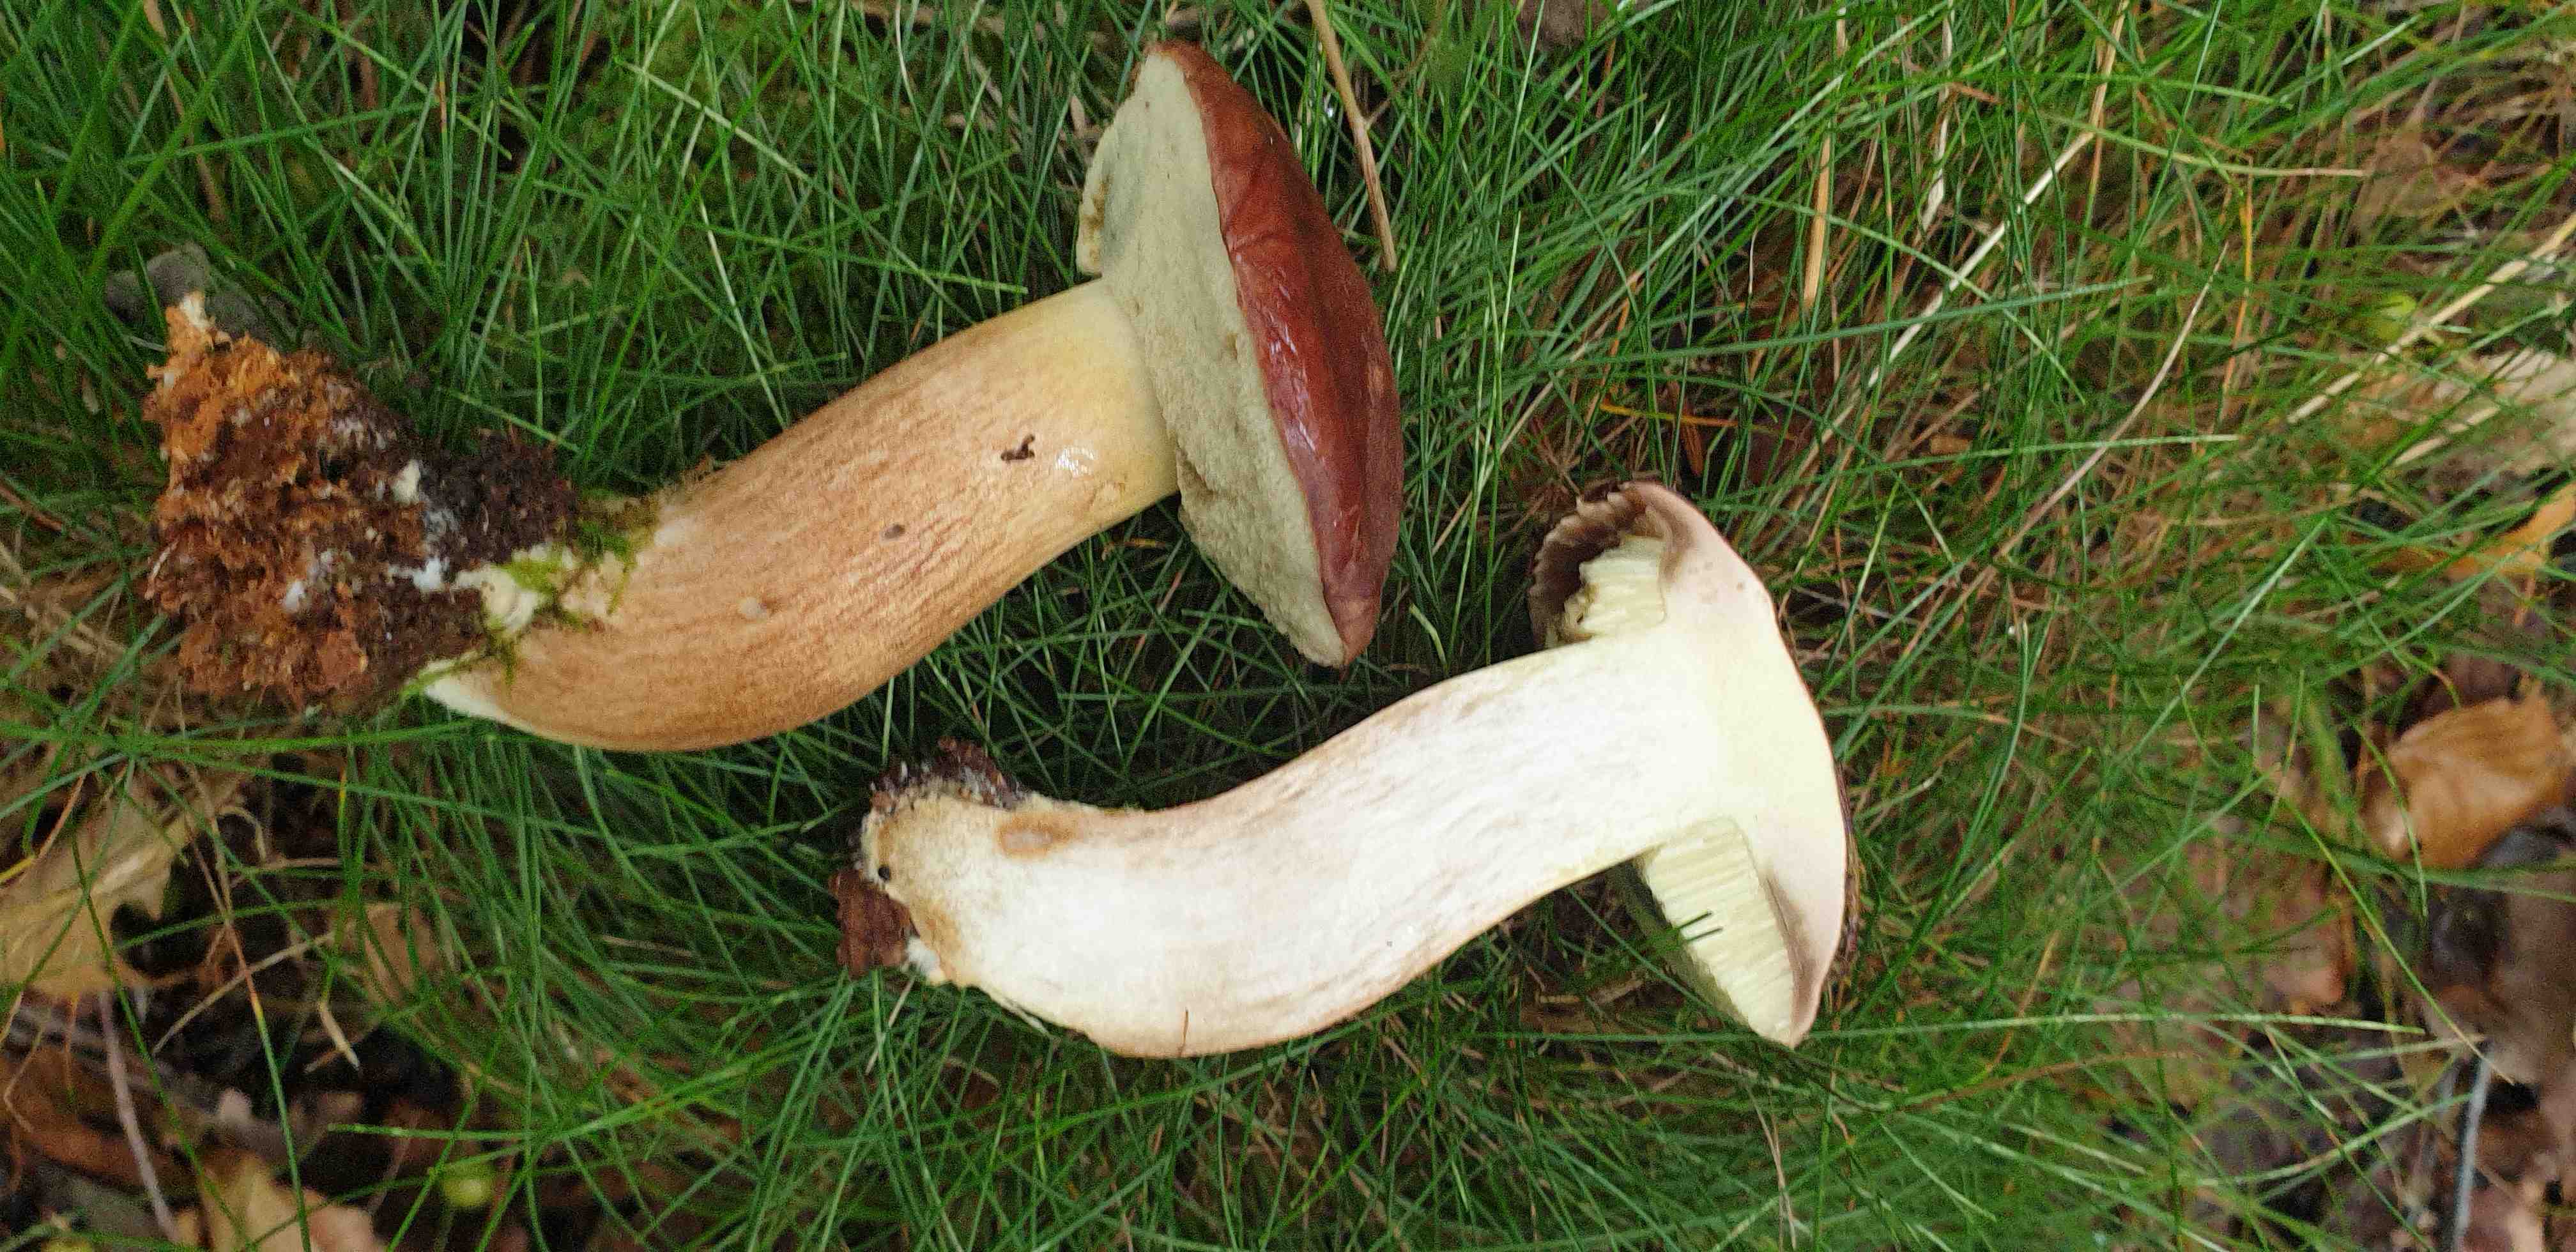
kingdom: Fungi
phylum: Basidiomycota
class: Agaricomycetes
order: Boletales
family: Boletaceae
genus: Imleria
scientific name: Imleria badia
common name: brunstokket rørhat
